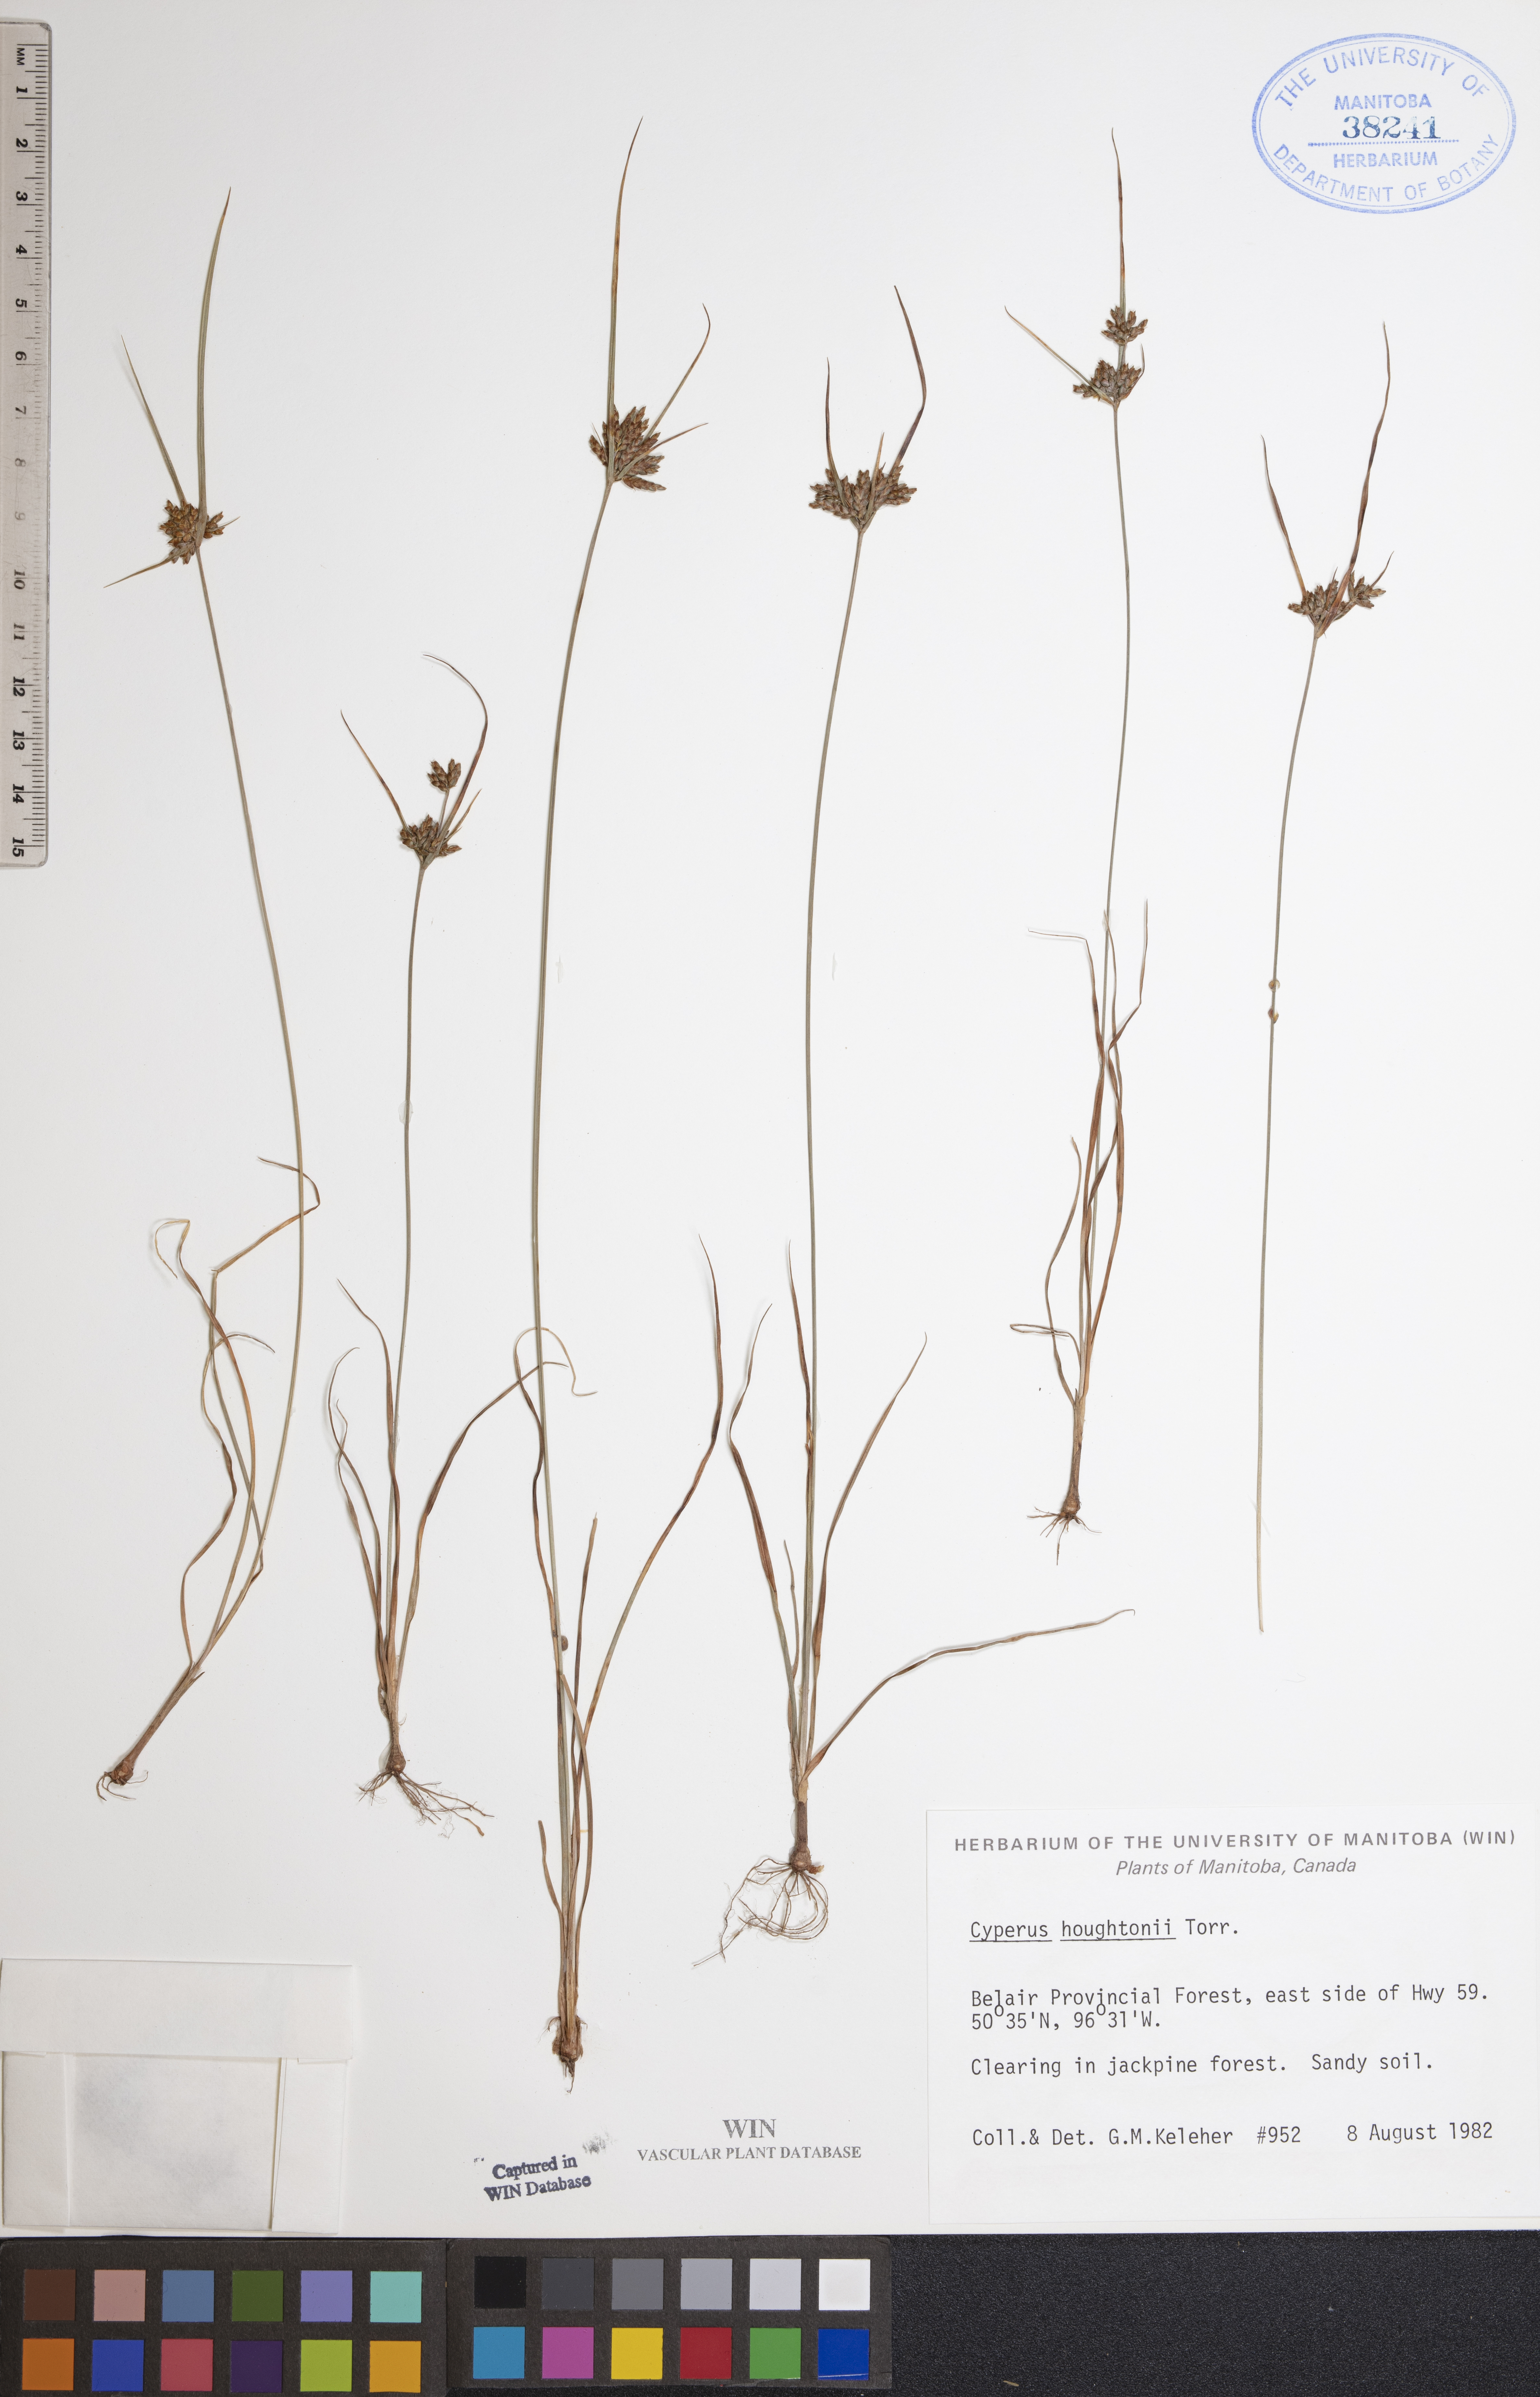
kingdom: Plantae
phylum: Tracheophyta
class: Liliopsida
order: Poales
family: Cyperaceae
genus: Cyperus
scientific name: Cyperus houghtonii
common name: Houghton's cyperus
